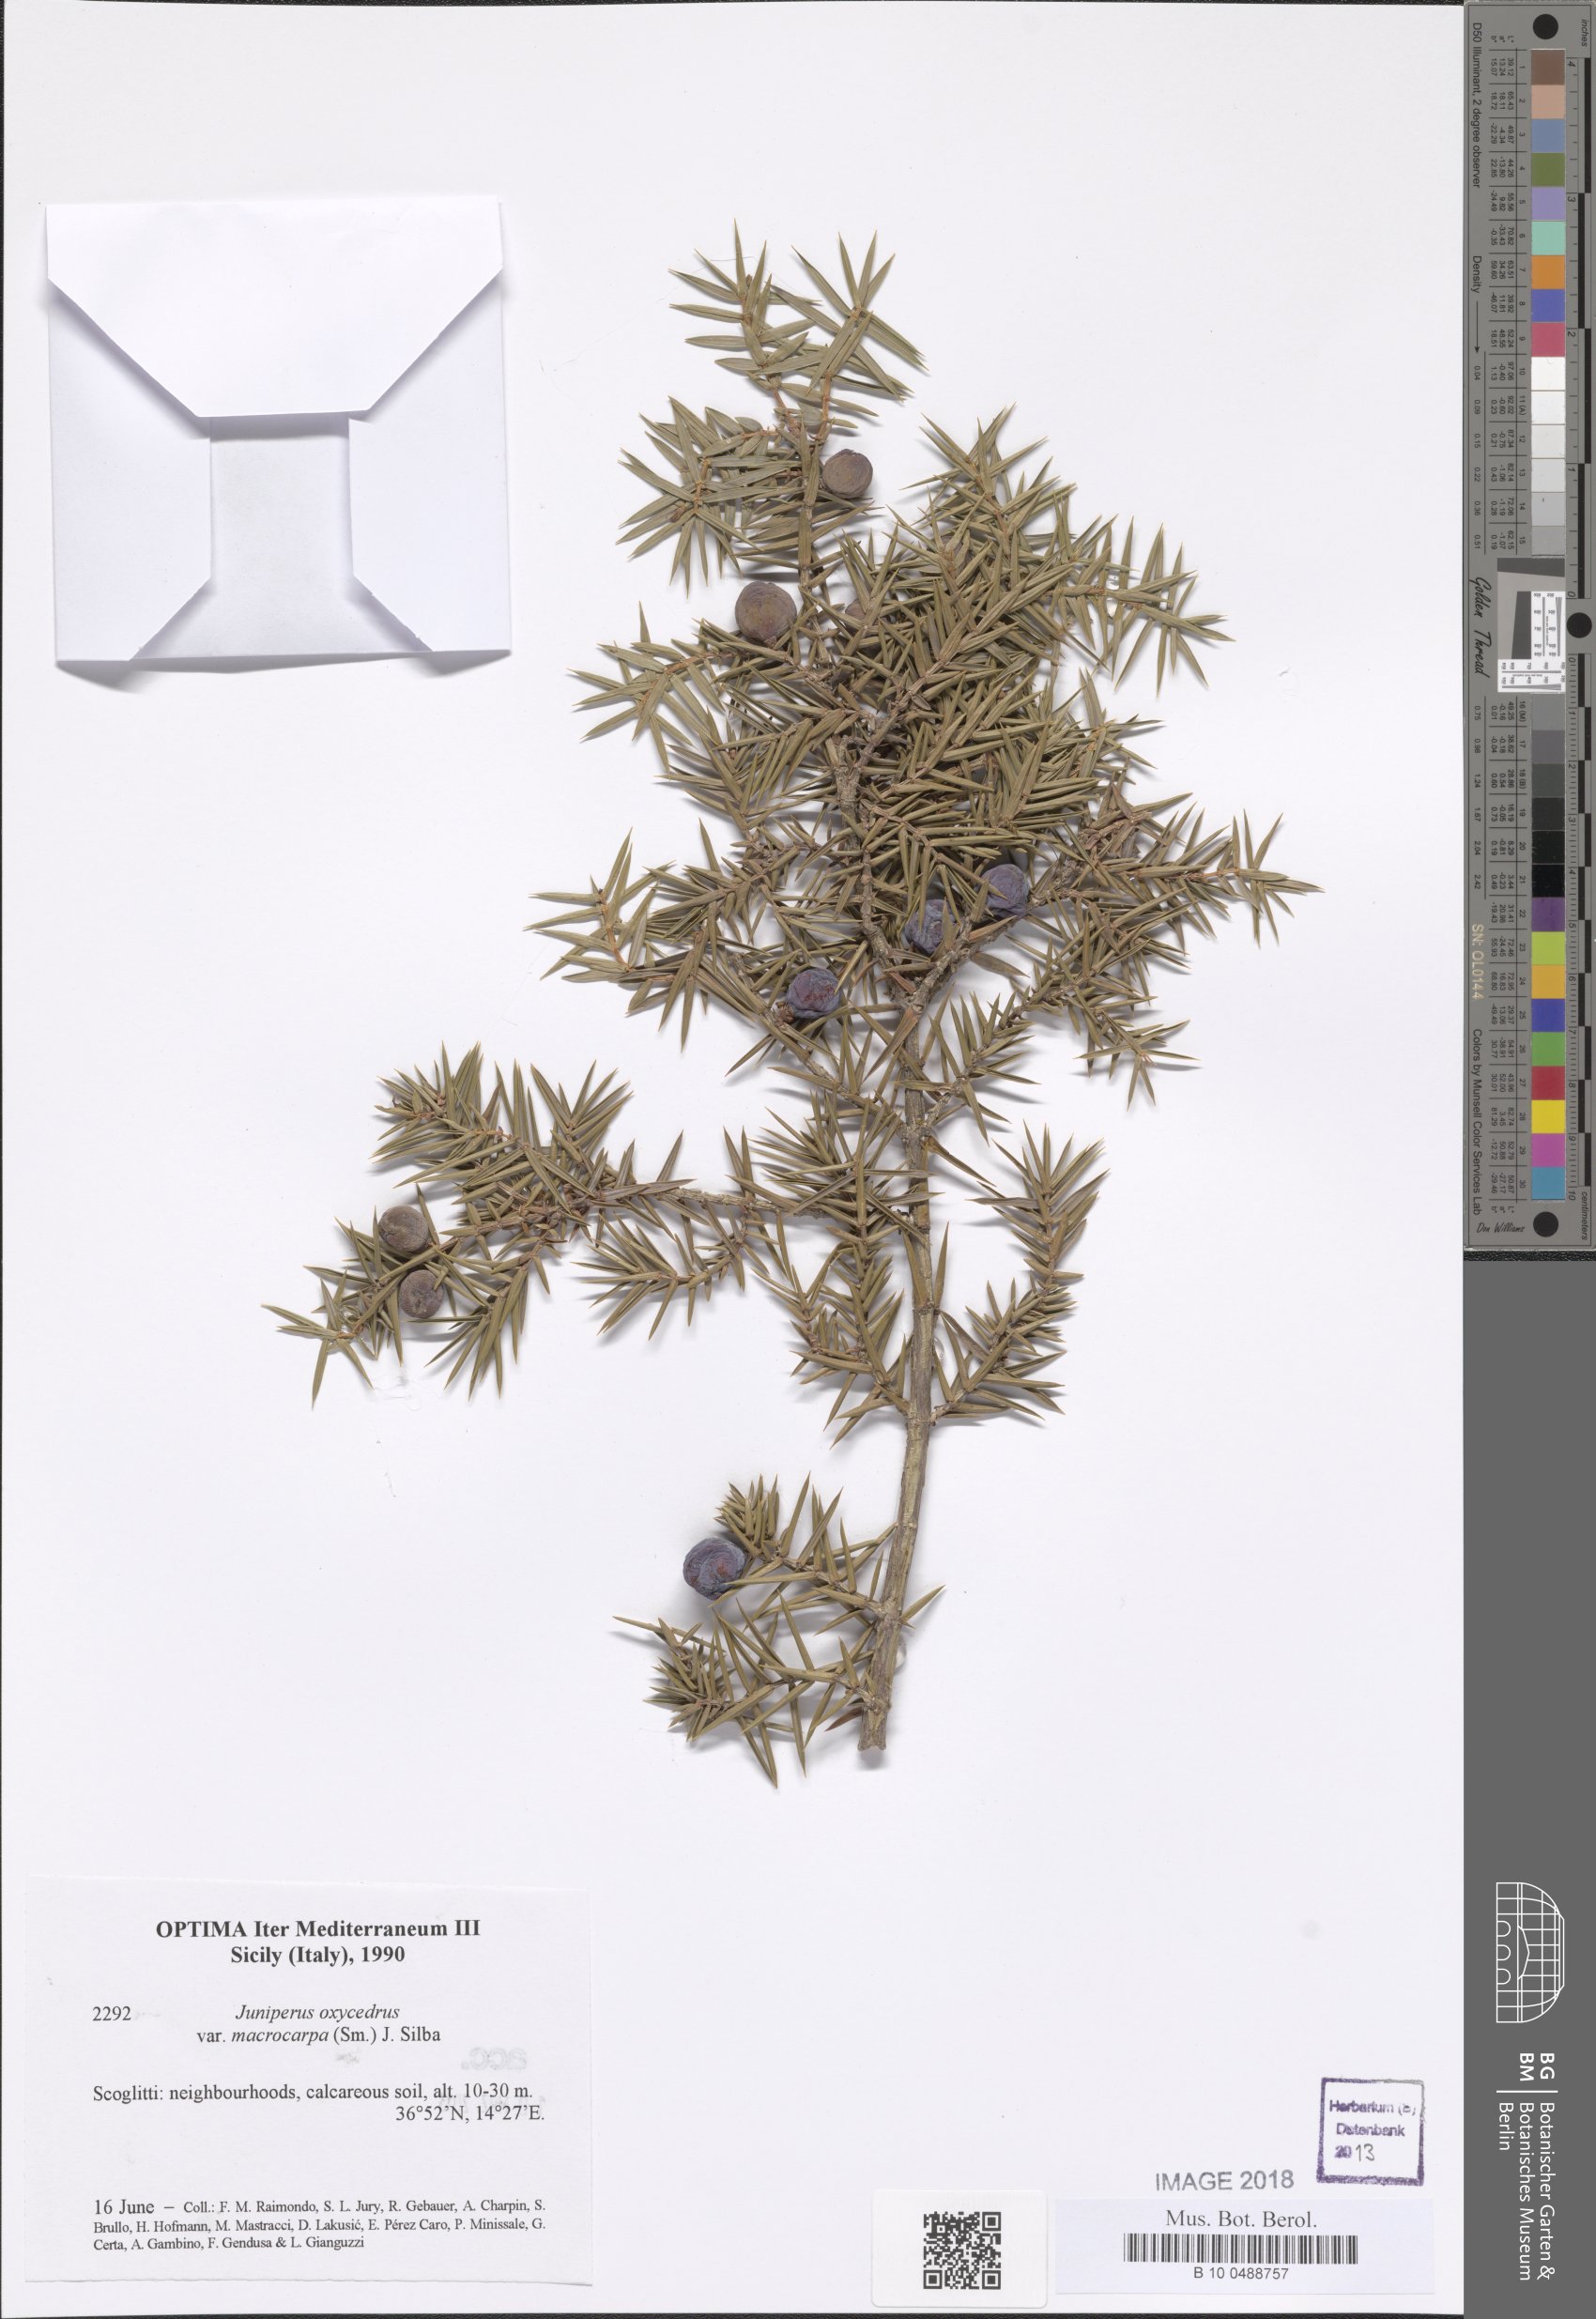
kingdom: Plantae
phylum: Tracheophyta
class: Pinopsida
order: Pinales
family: Cupressaceae
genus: Juniperus
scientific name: Juniperus oxycedrus
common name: Prickly juniper
